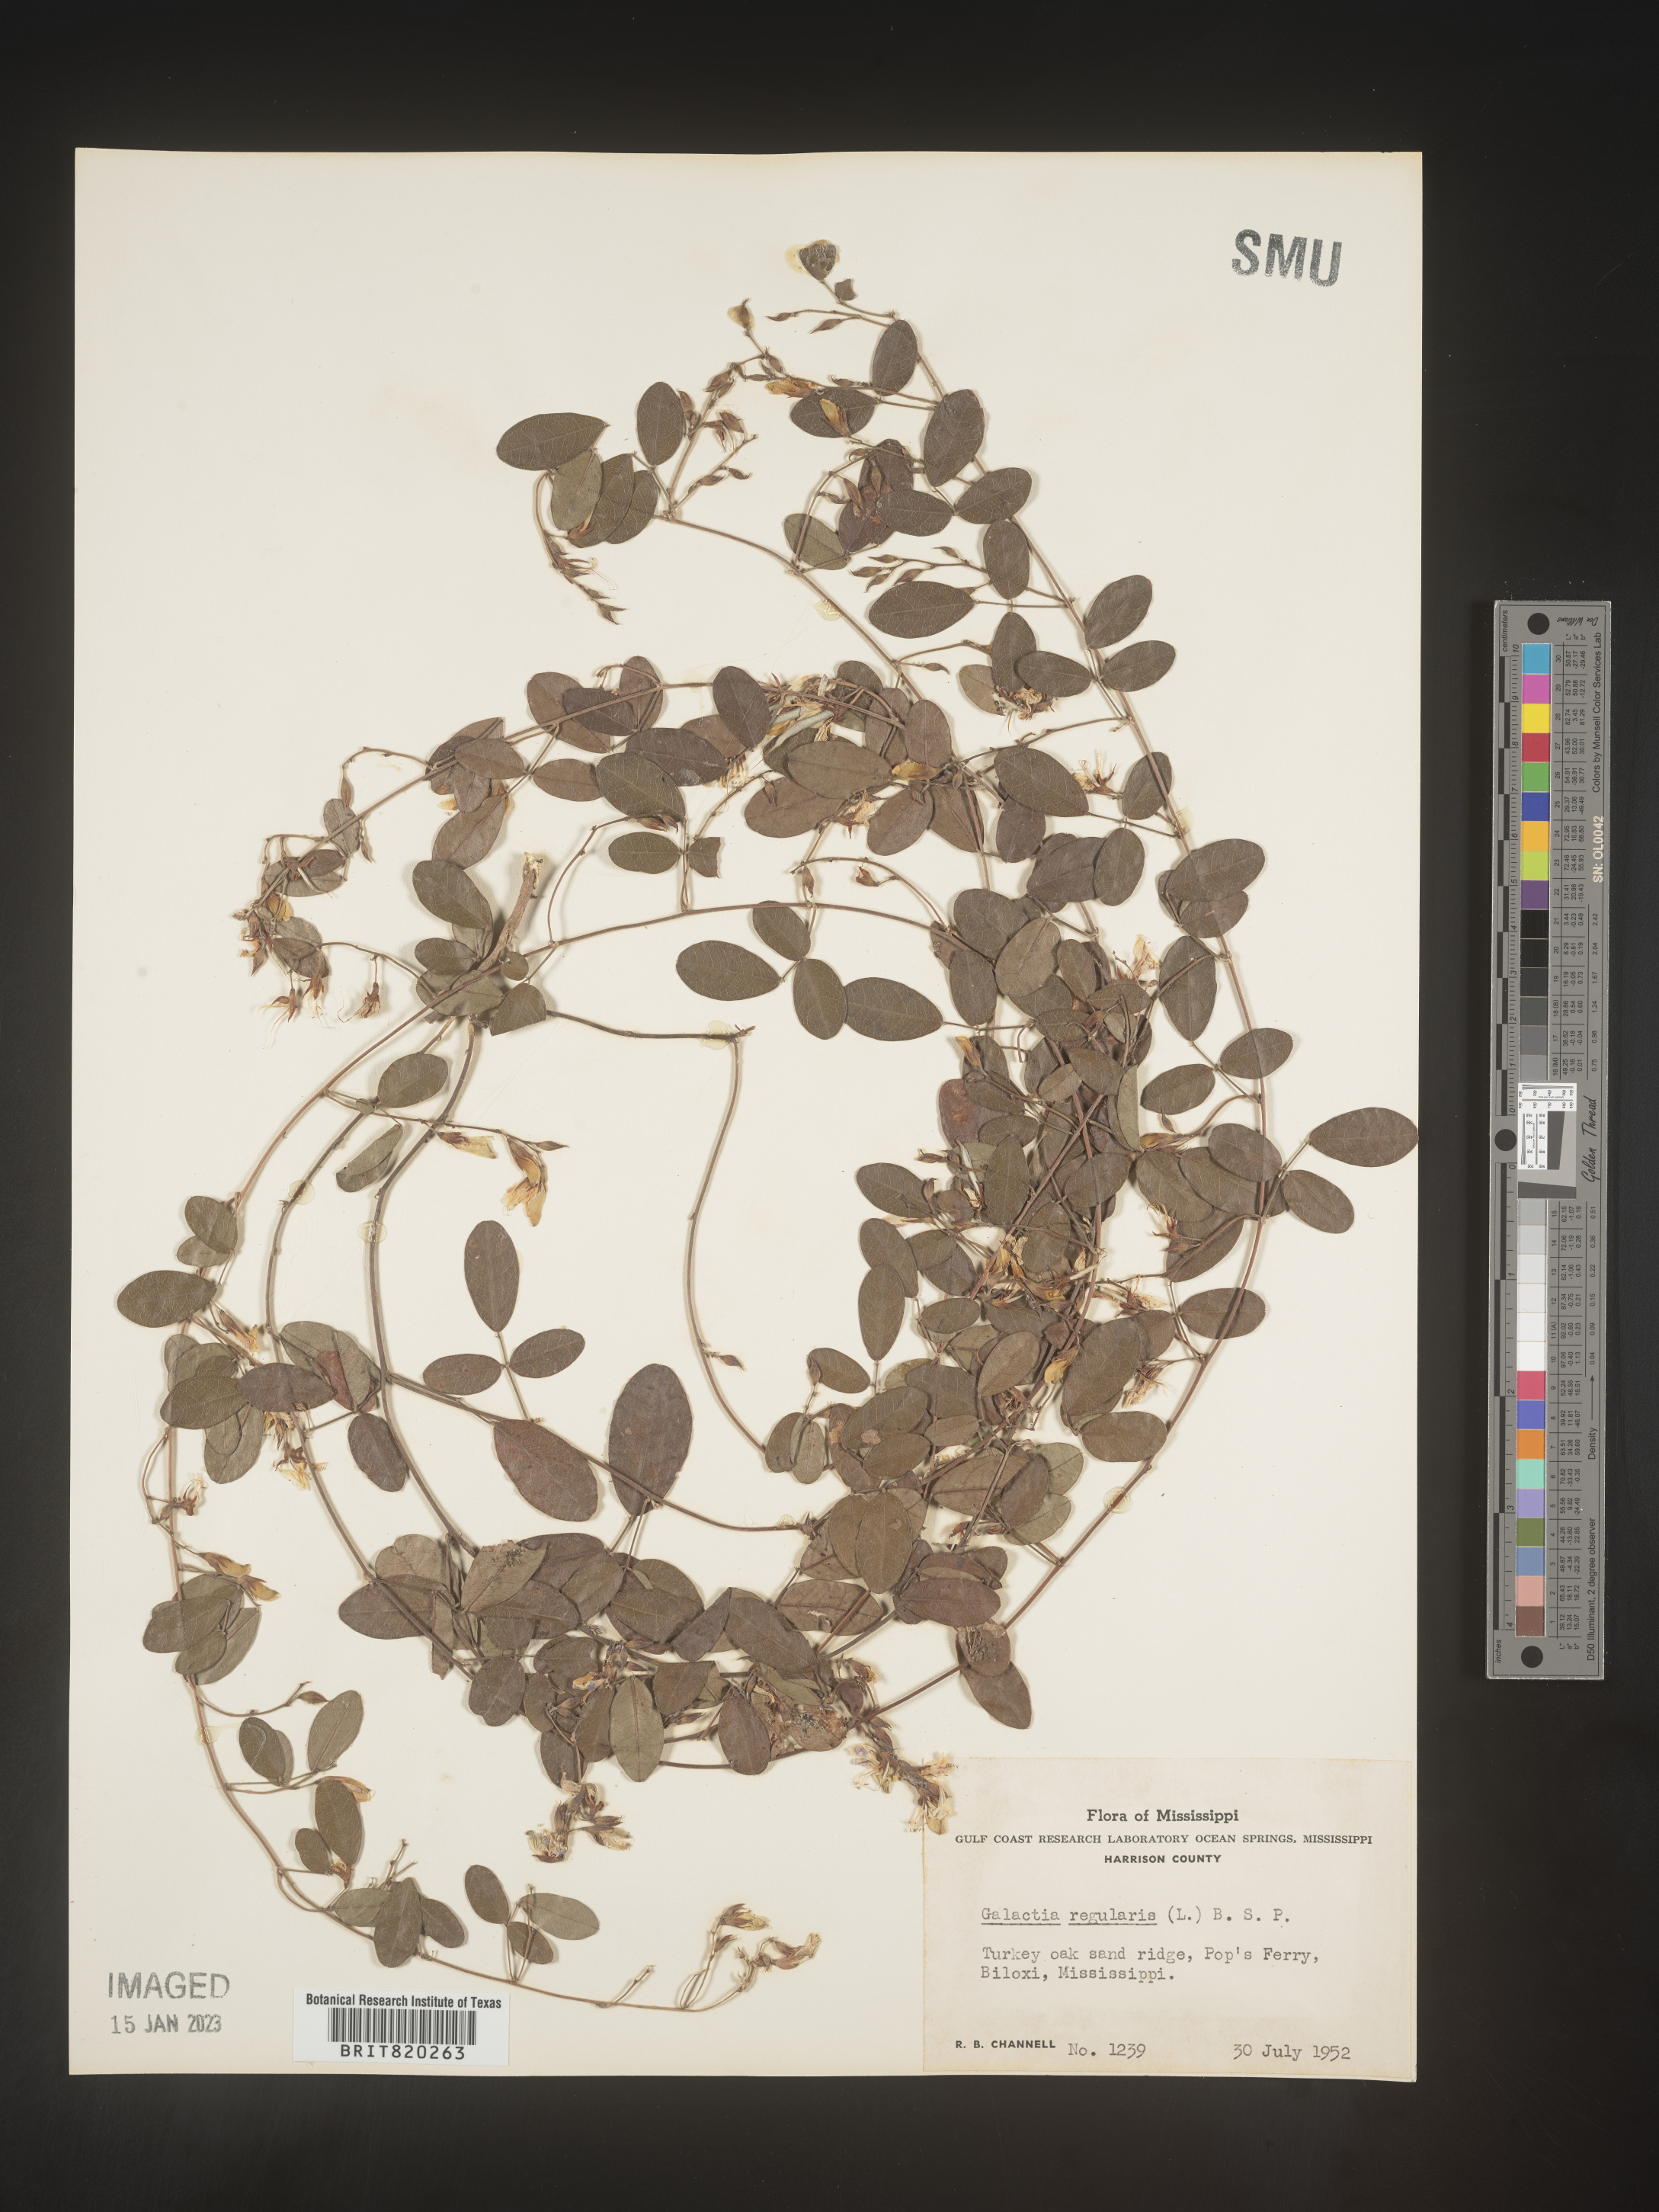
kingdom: Plantae
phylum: Tracheophyta
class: Magnoliopsida
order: Fabales
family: Fabaceae
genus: Galactia
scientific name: Galactia microphylla
